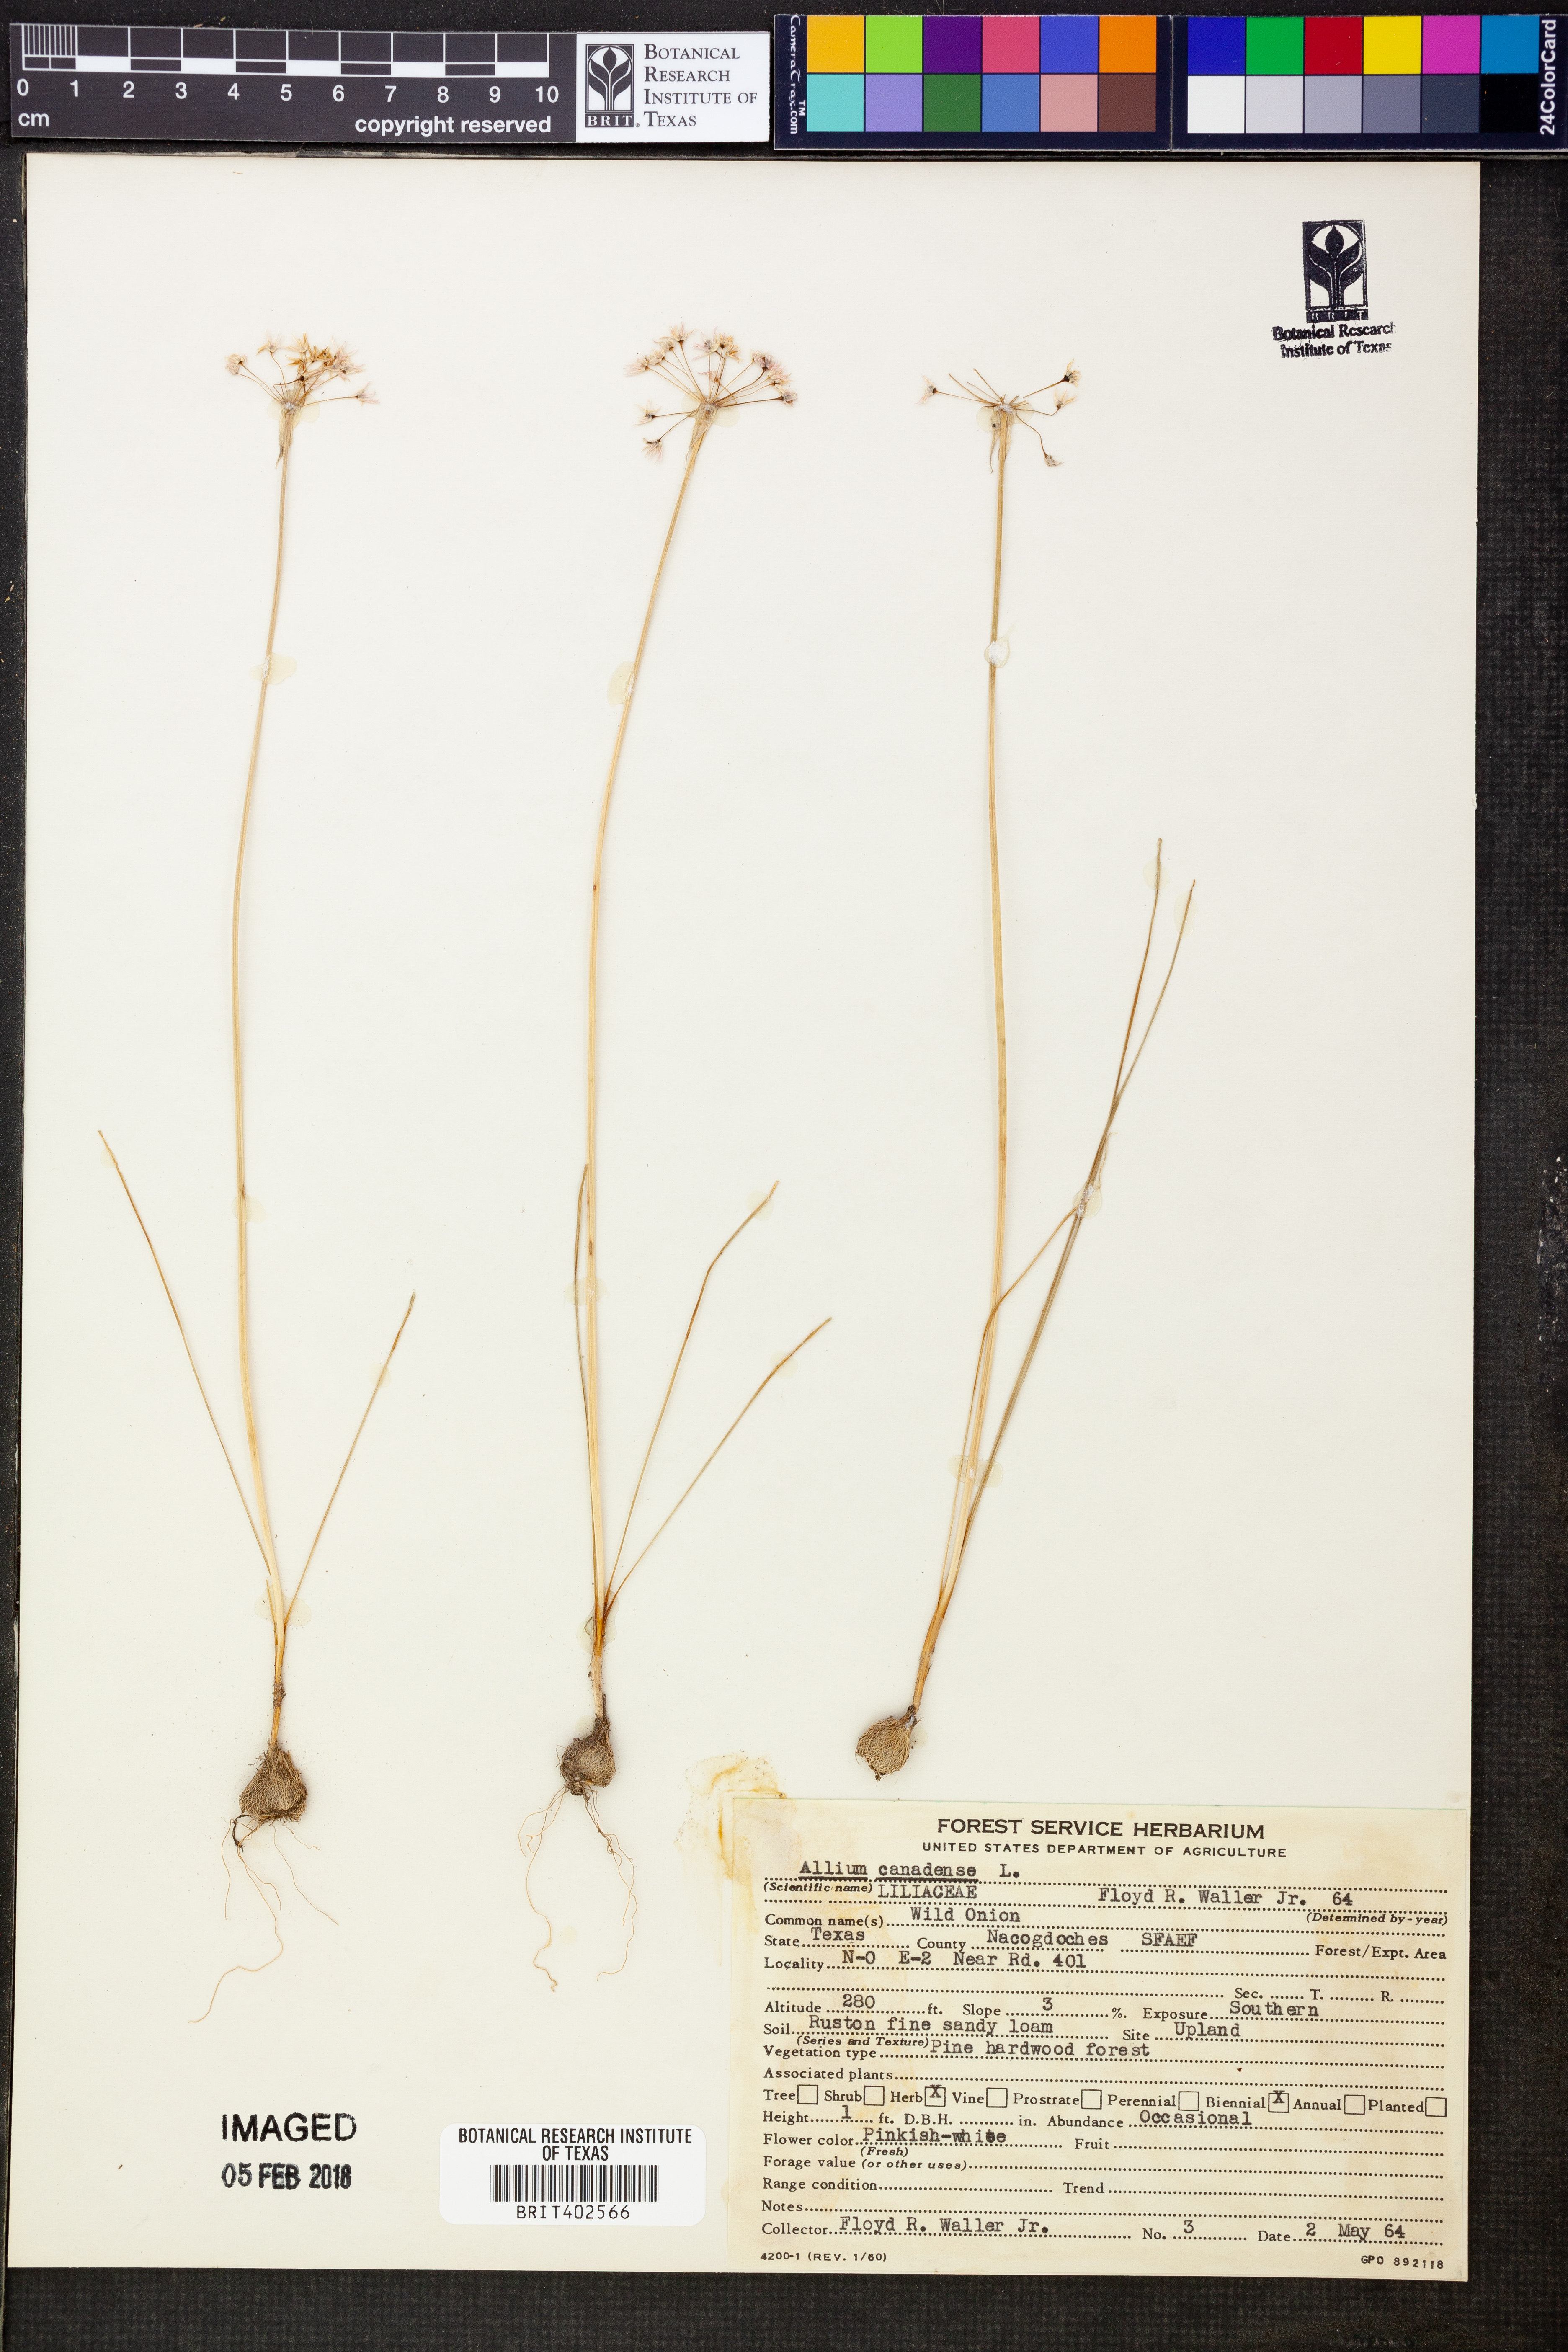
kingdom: Plantae
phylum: Tracheophyta
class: Liliopsida
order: Asparagales
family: Amaryllidaceae
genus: Allium
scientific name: Allium canadense
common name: Meadow garlic
